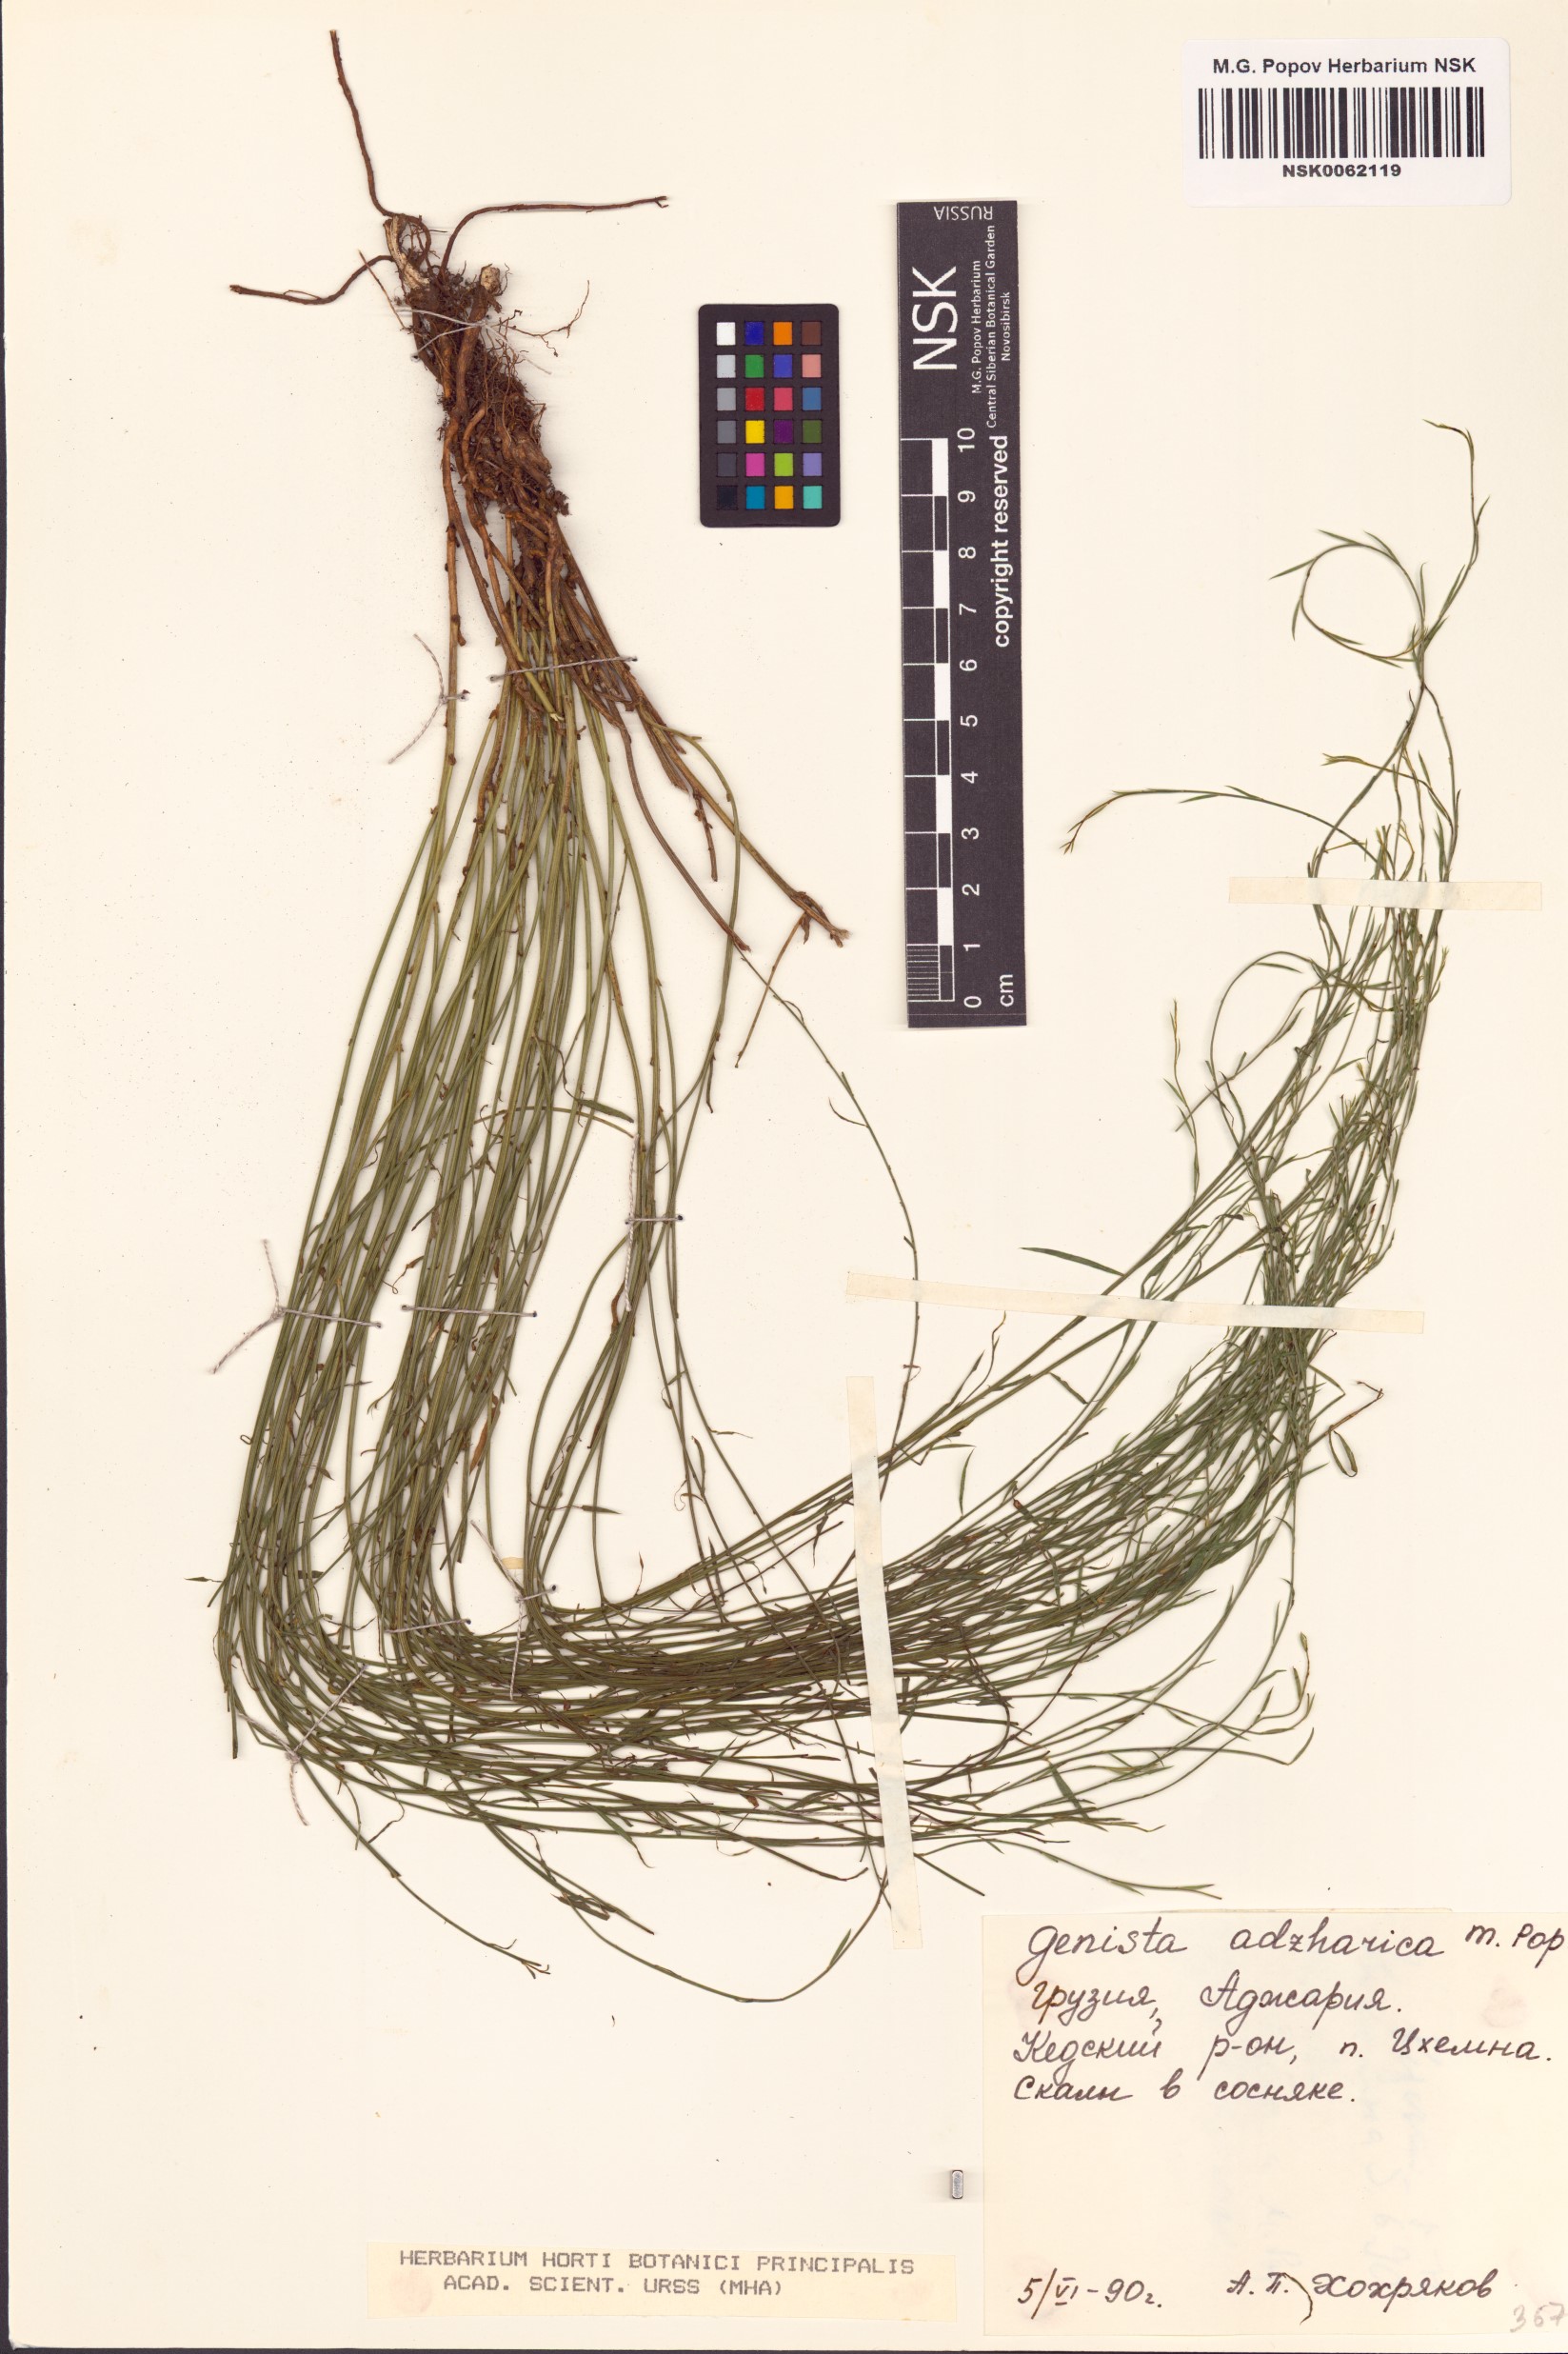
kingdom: Plantae
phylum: Tracheophyta
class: Magnoliopsida
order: Fabales
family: Fabaceae
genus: Genista
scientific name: Genista suanica
